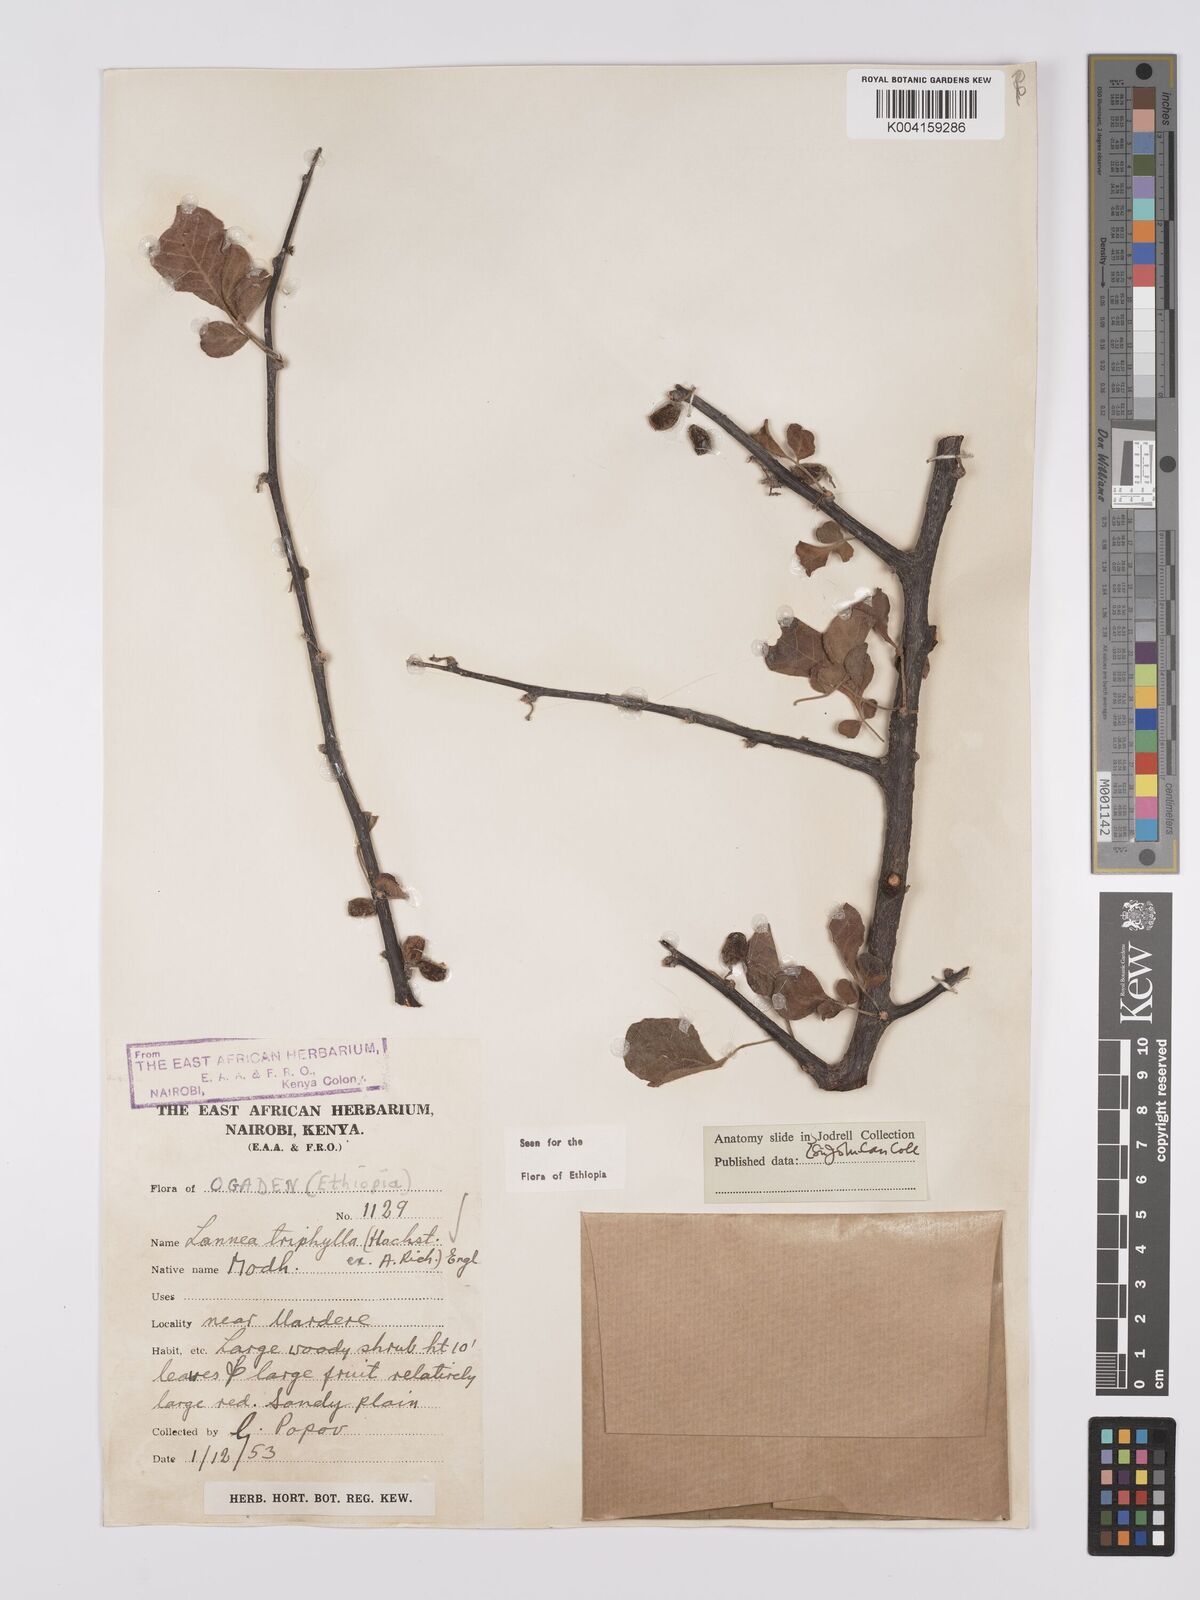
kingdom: Plantae
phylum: Tracheophyta
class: Magnoliopsida
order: Sapindales
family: Anacardiaceae
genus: Lannea
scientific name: Lannea triphylla
